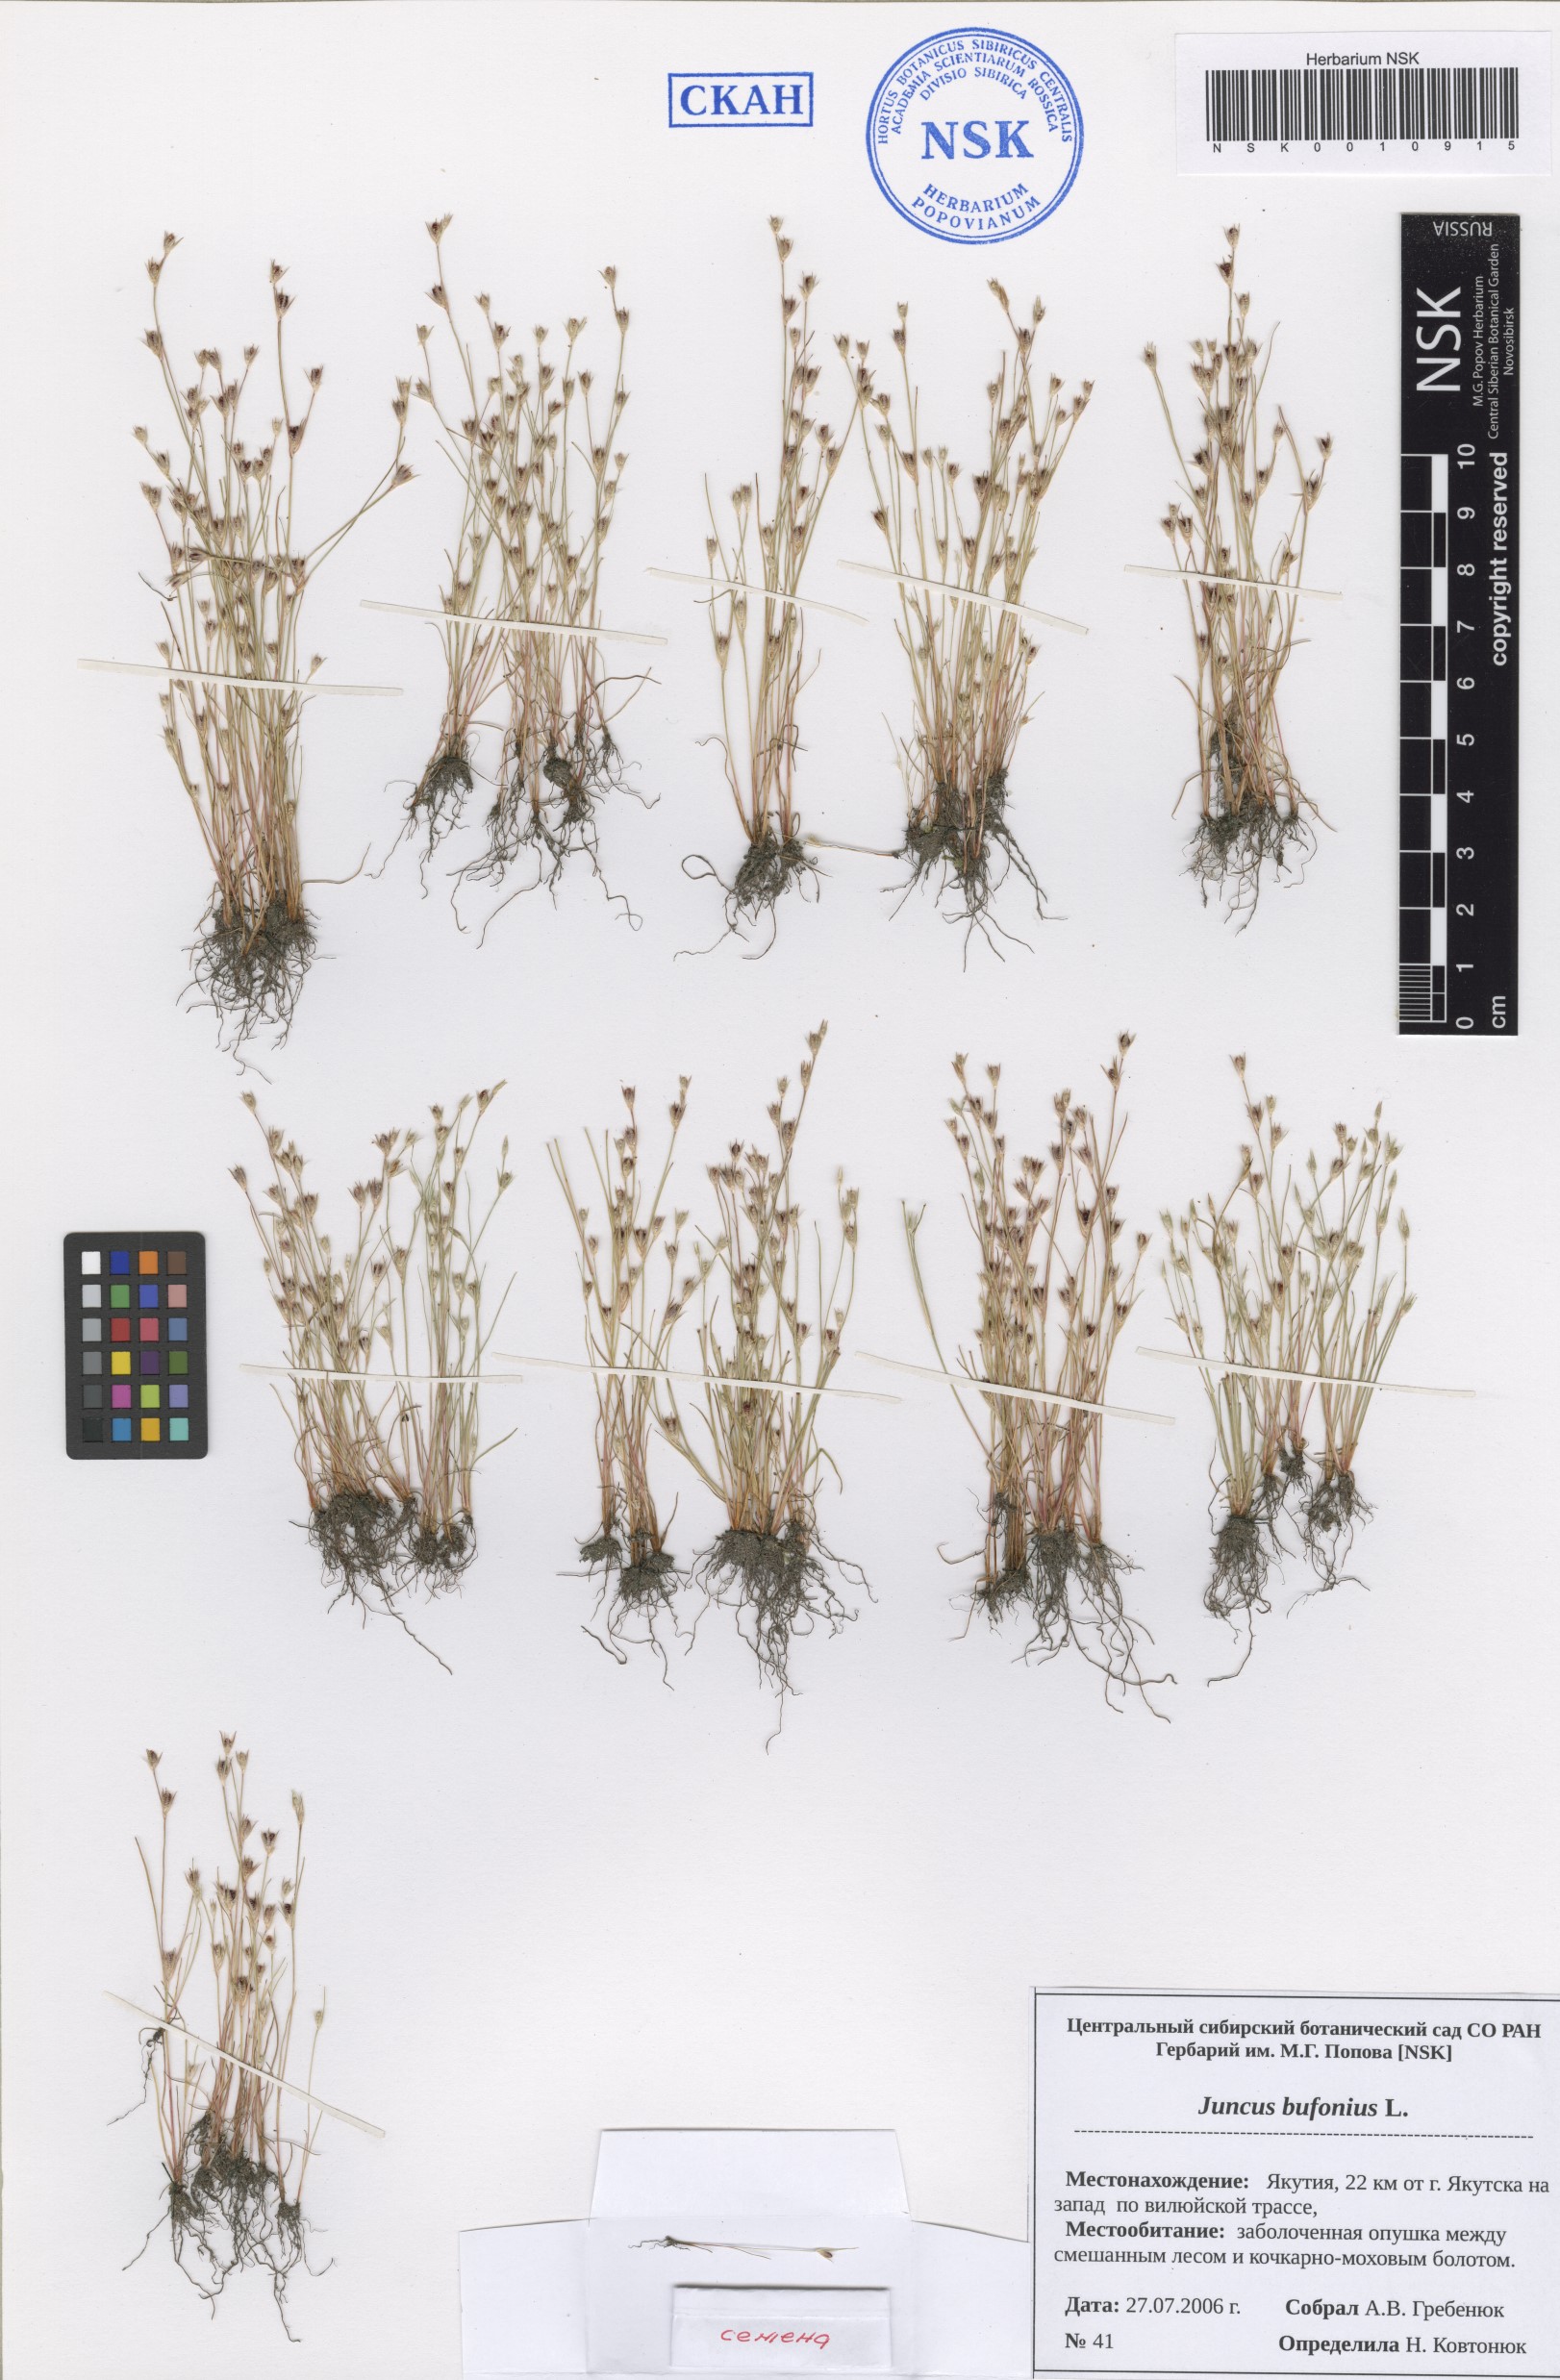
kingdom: Plantae
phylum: Tracheophyta
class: Liliopsida
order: Poales
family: Juncaceae
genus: Juncus
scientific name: Juncus bufonius
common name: Toad rush
